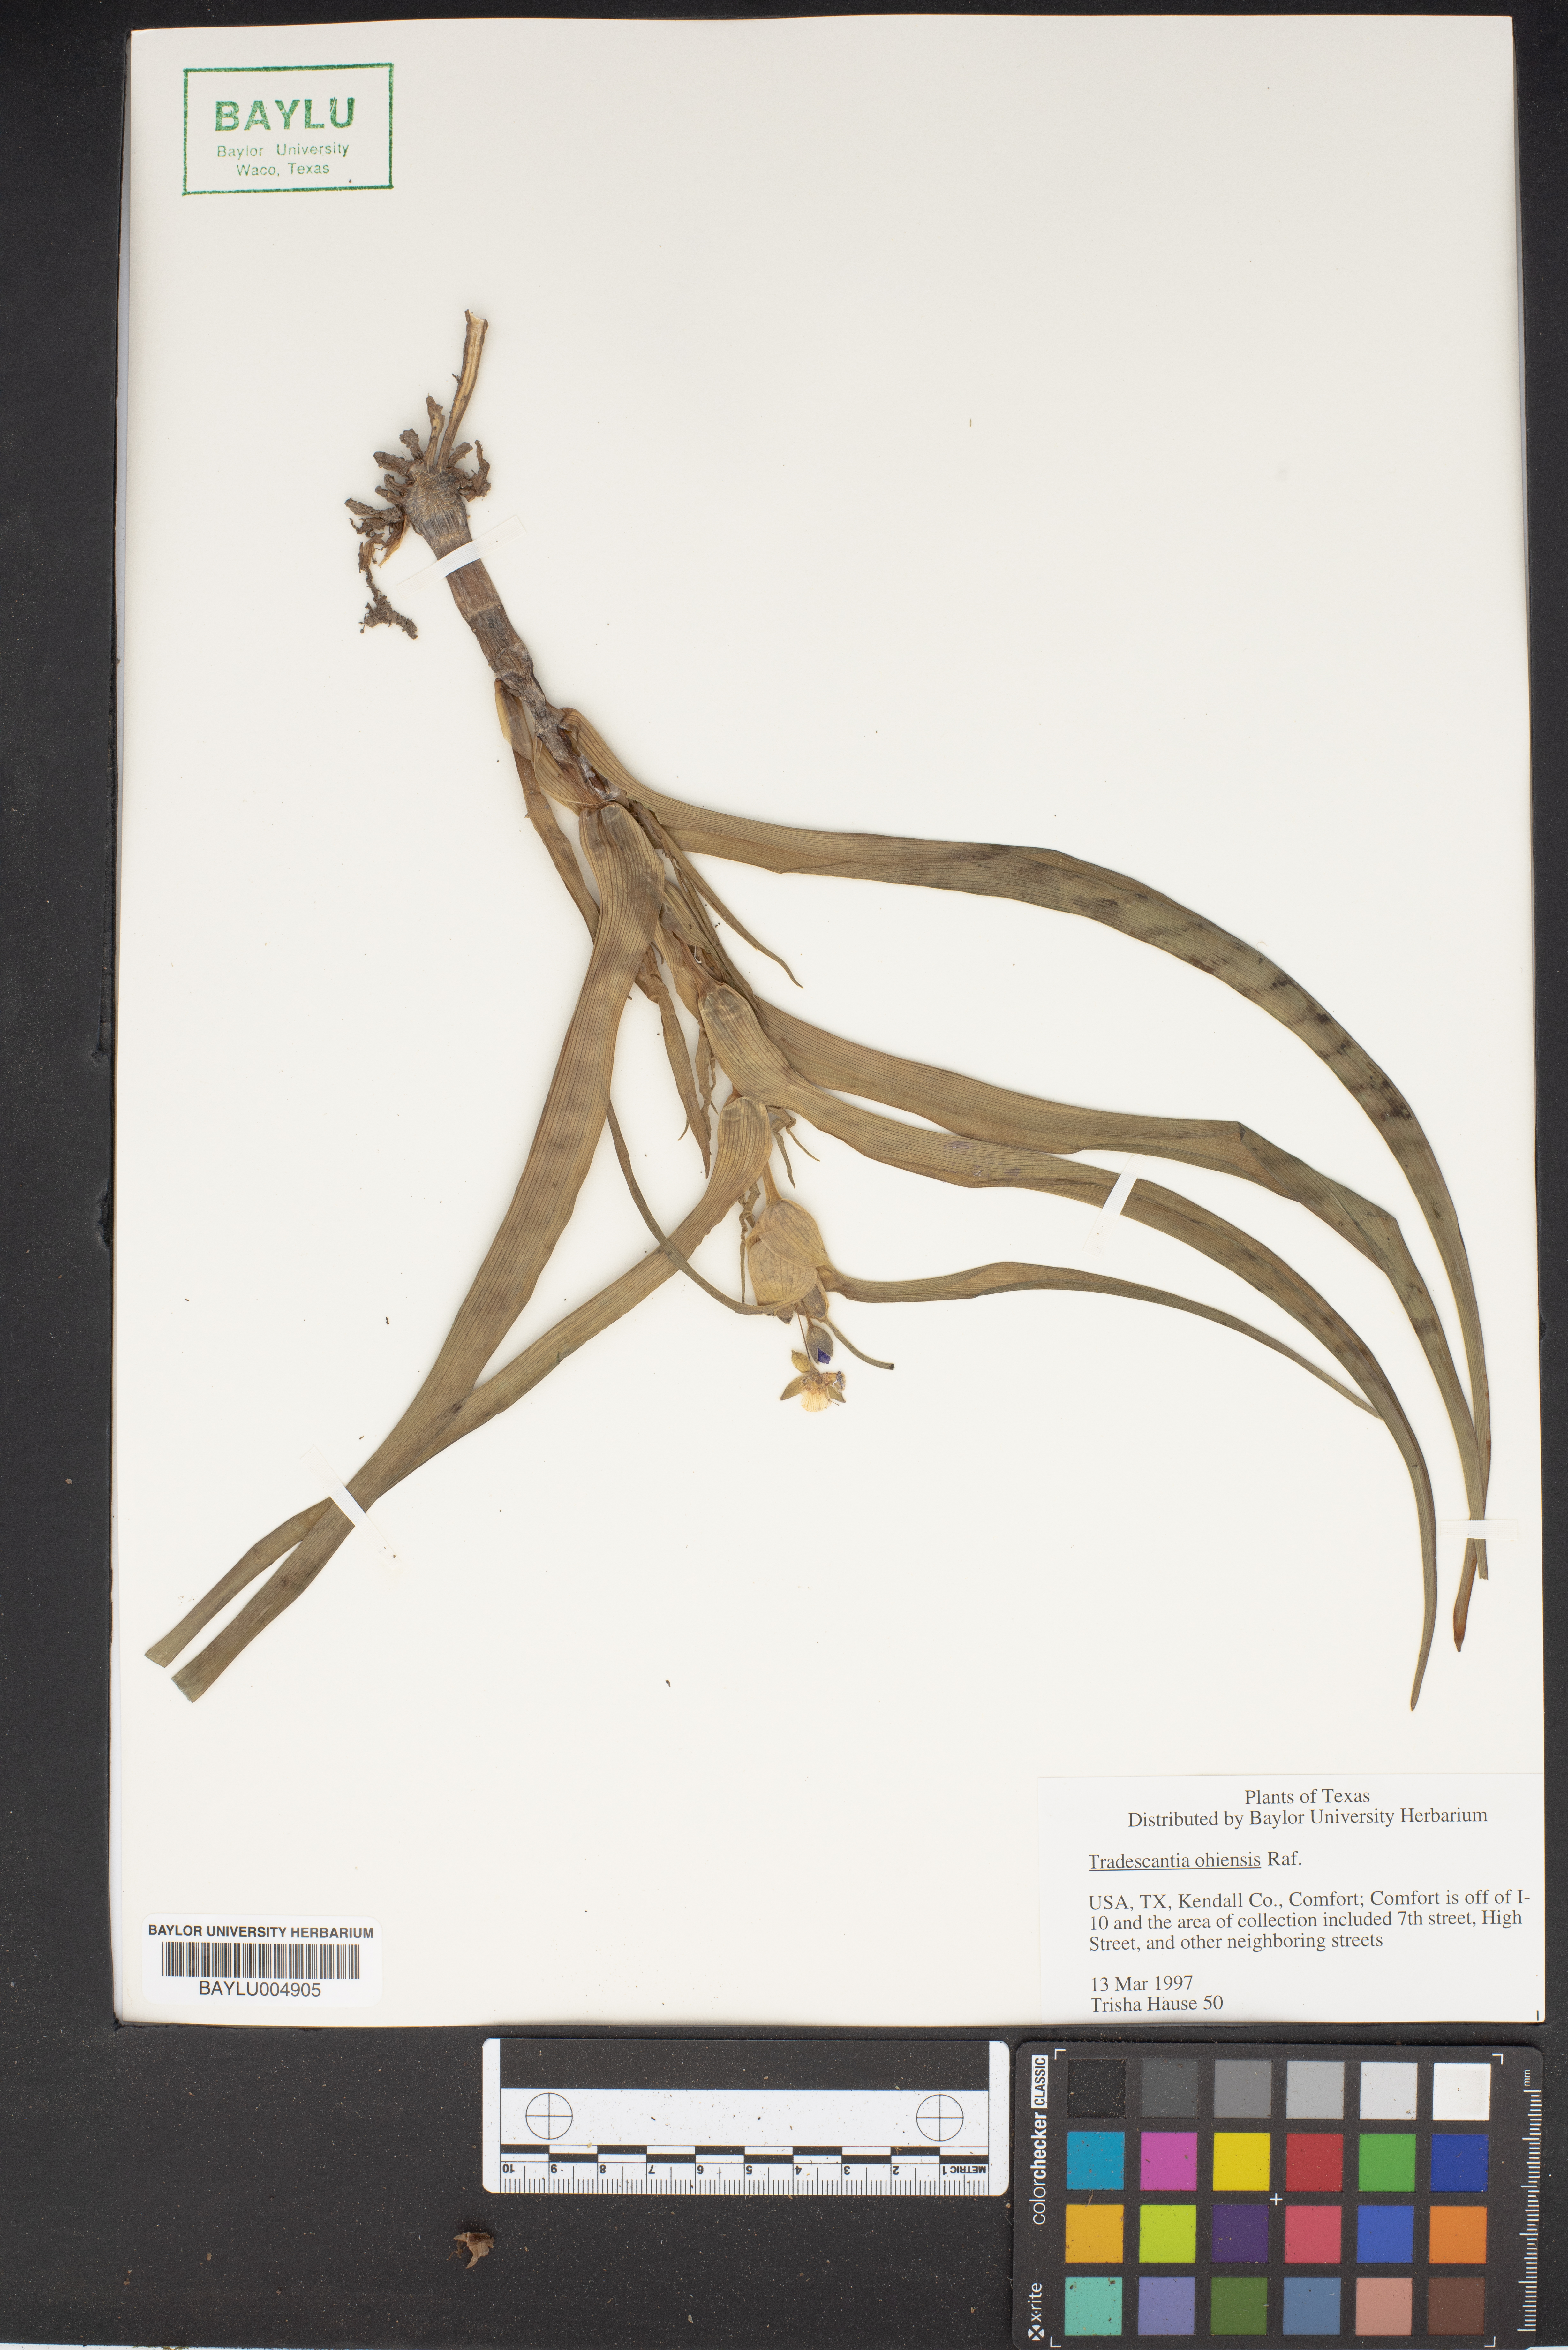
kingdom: Plantae
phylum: Tracheophyta
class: Liliopsida
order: Commelinales
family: Commelinaceae
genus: Tradescantia
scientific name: Tradescantia ohiensis
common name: Ohio spiderwort
